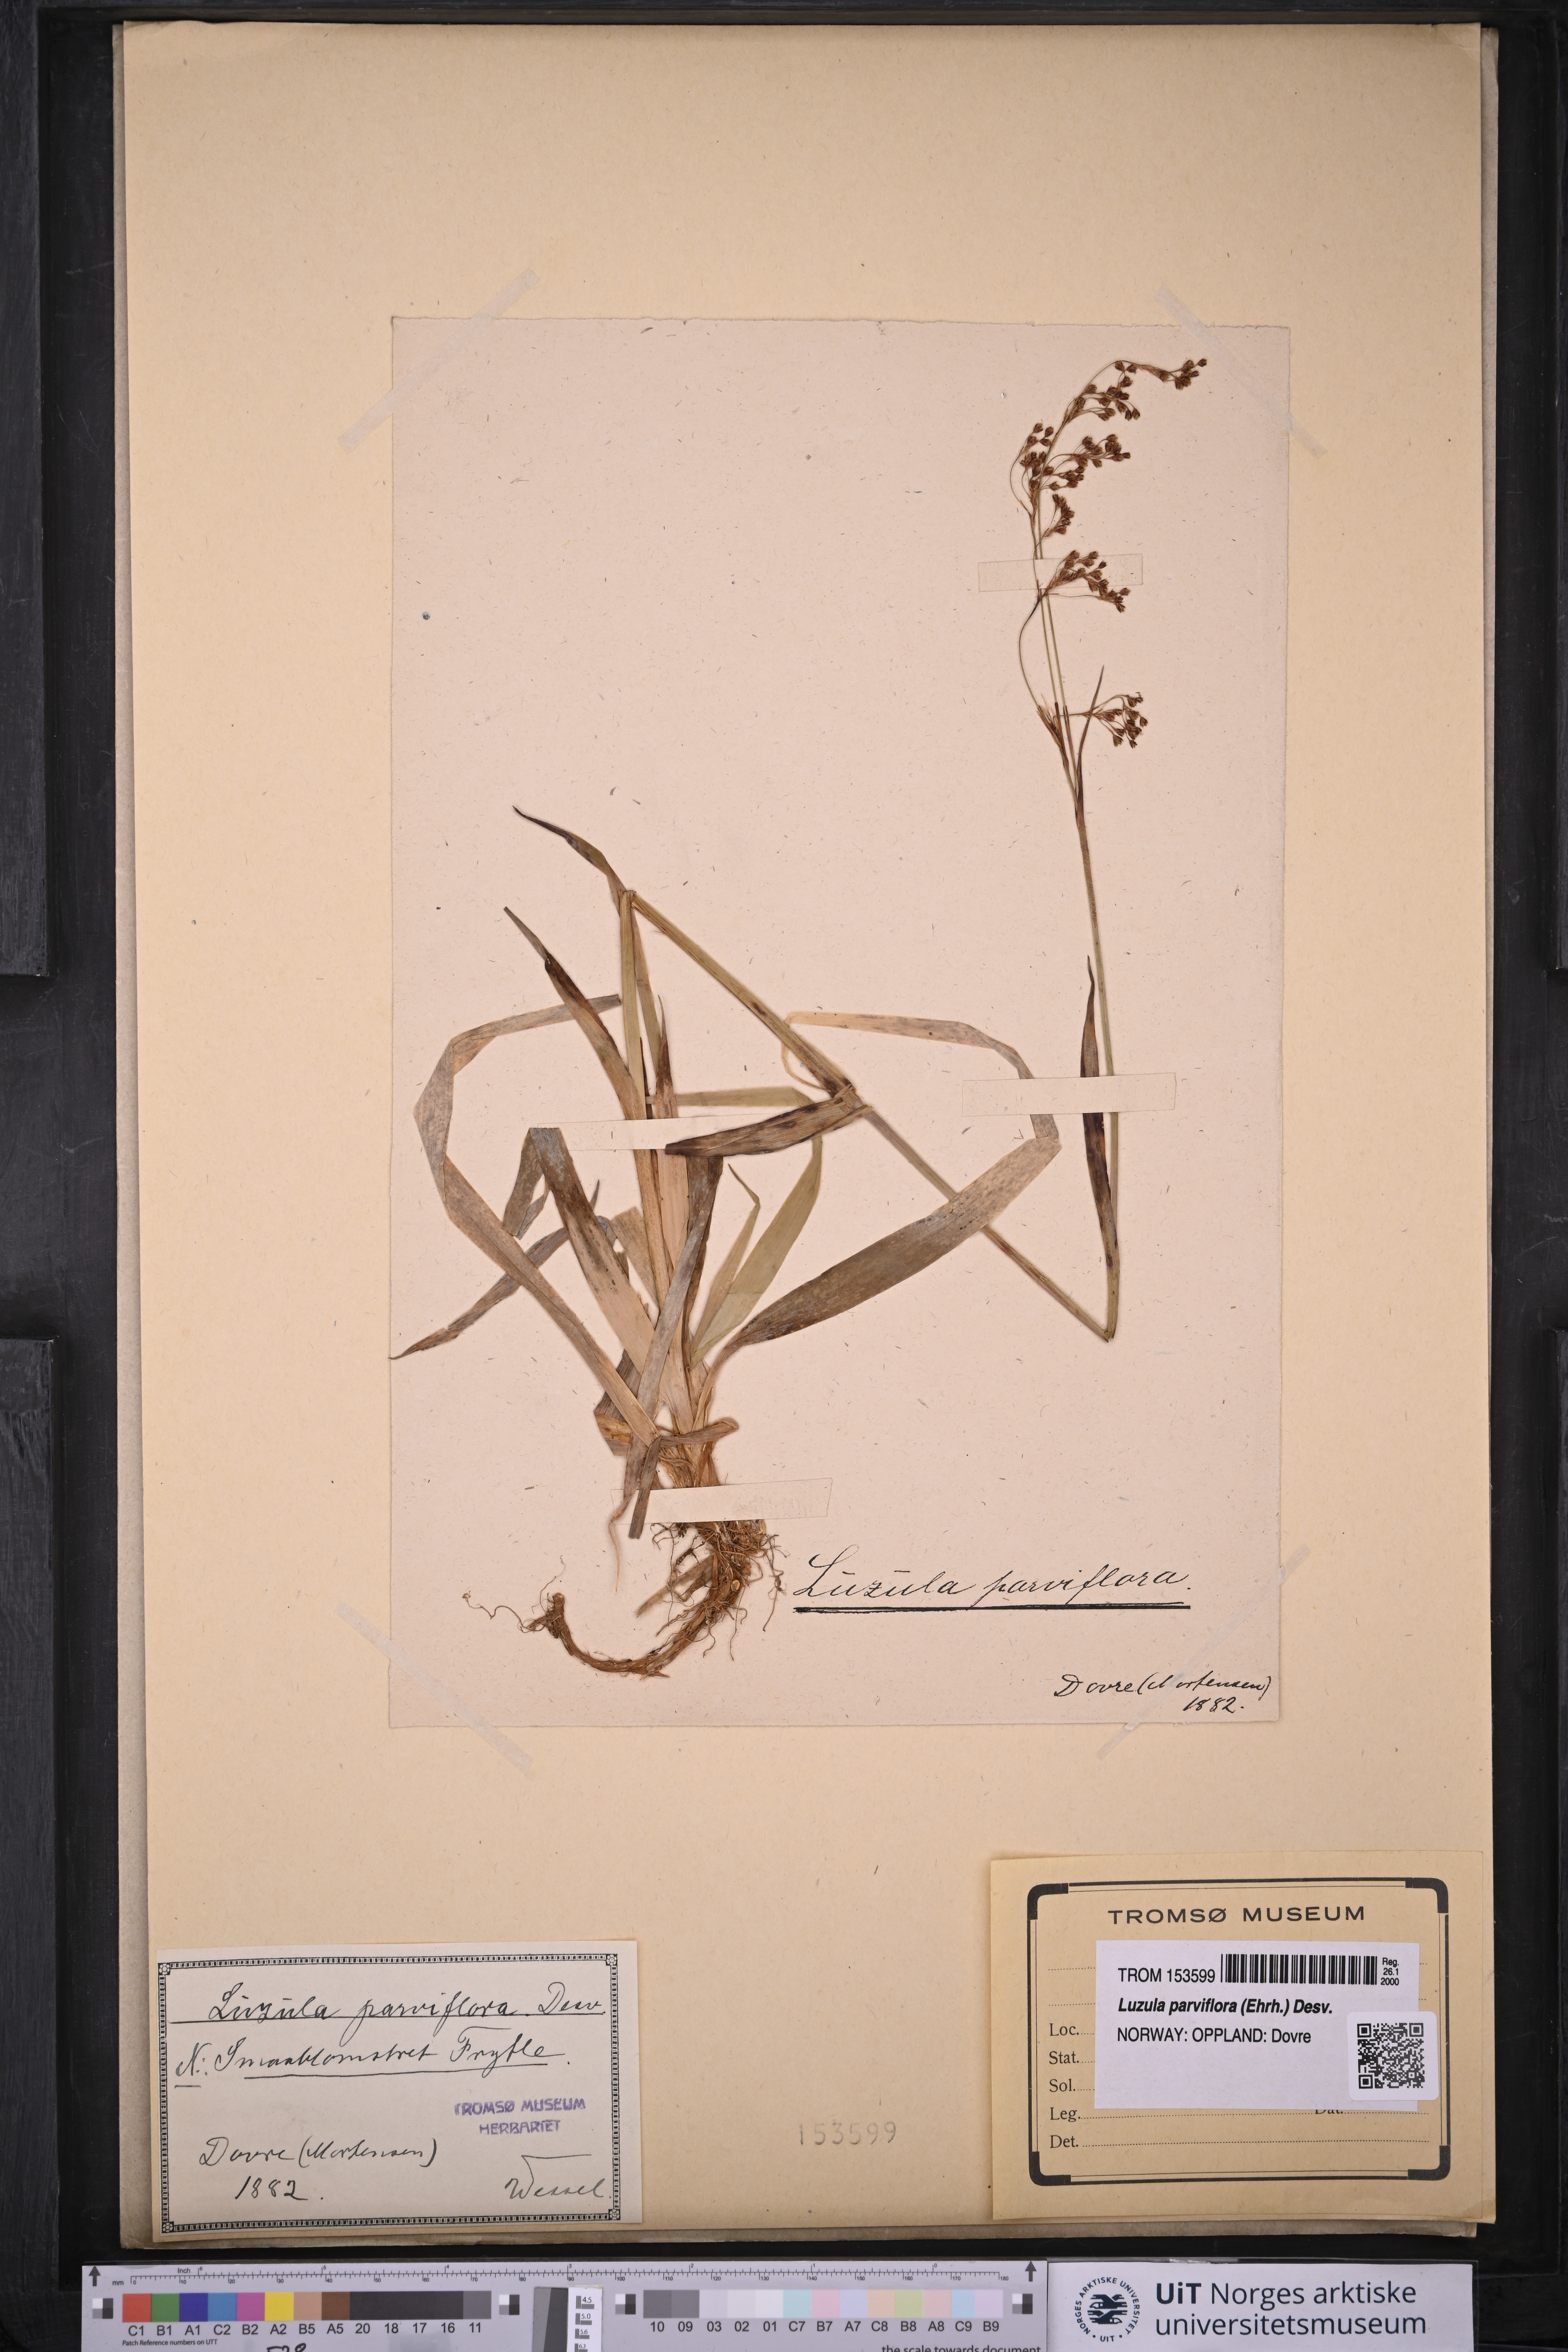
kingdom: Plantae
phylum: Tracheophyta
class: Liliopsida
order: Poales
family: Juncaceae
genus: Luzula
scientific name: Luzula parviflora
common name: Millet woodrush
